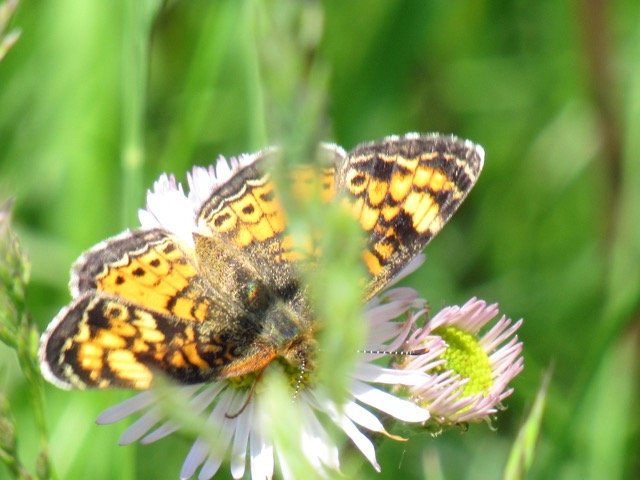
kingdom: Animalia
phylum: Arthropoda
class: Insecta
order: Lepidoptera
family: Nymphalidae
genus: Phyciodes
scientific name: Phyciodes tharos
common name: Pearl Crescent
